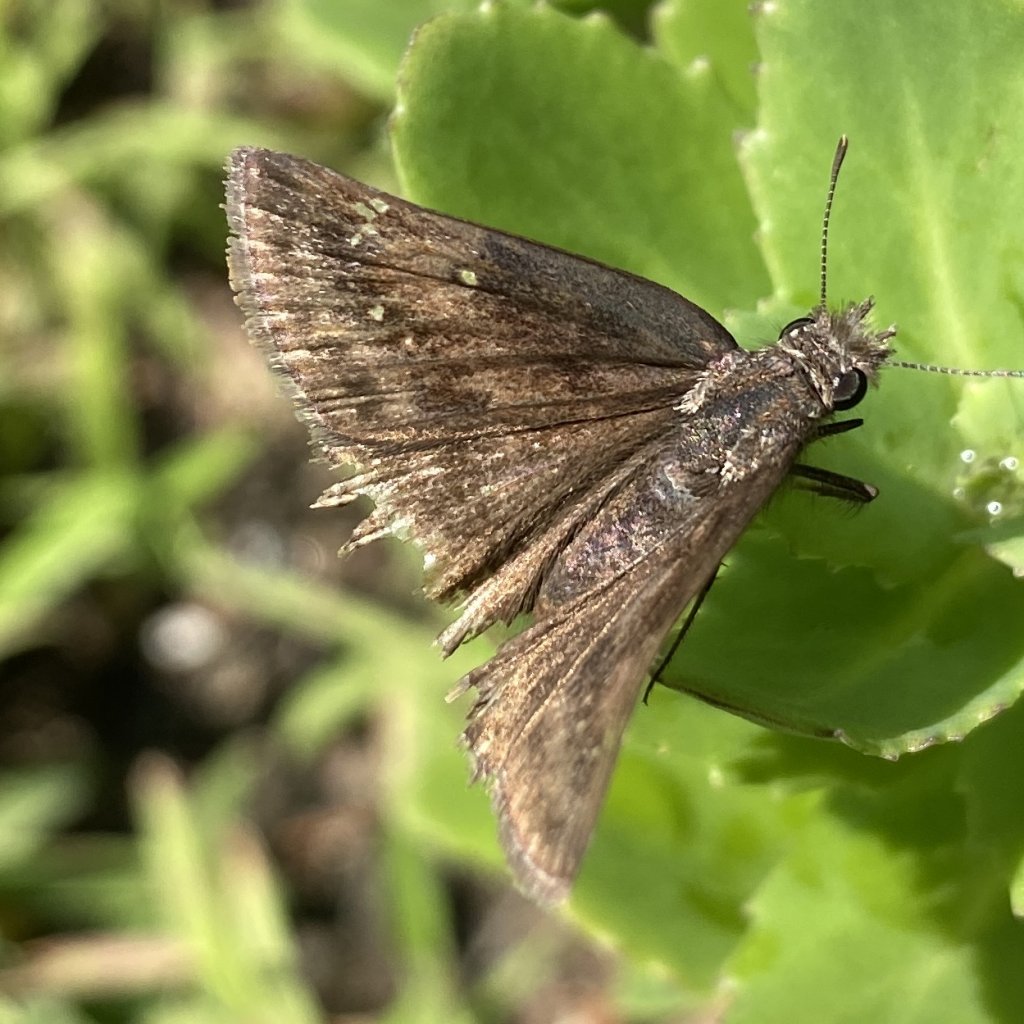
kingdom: Animalia
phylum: Arthropoda
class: Insecta
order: Lepidoptera
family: Hesperiidae
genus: Erynnis
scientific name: Erynnis
